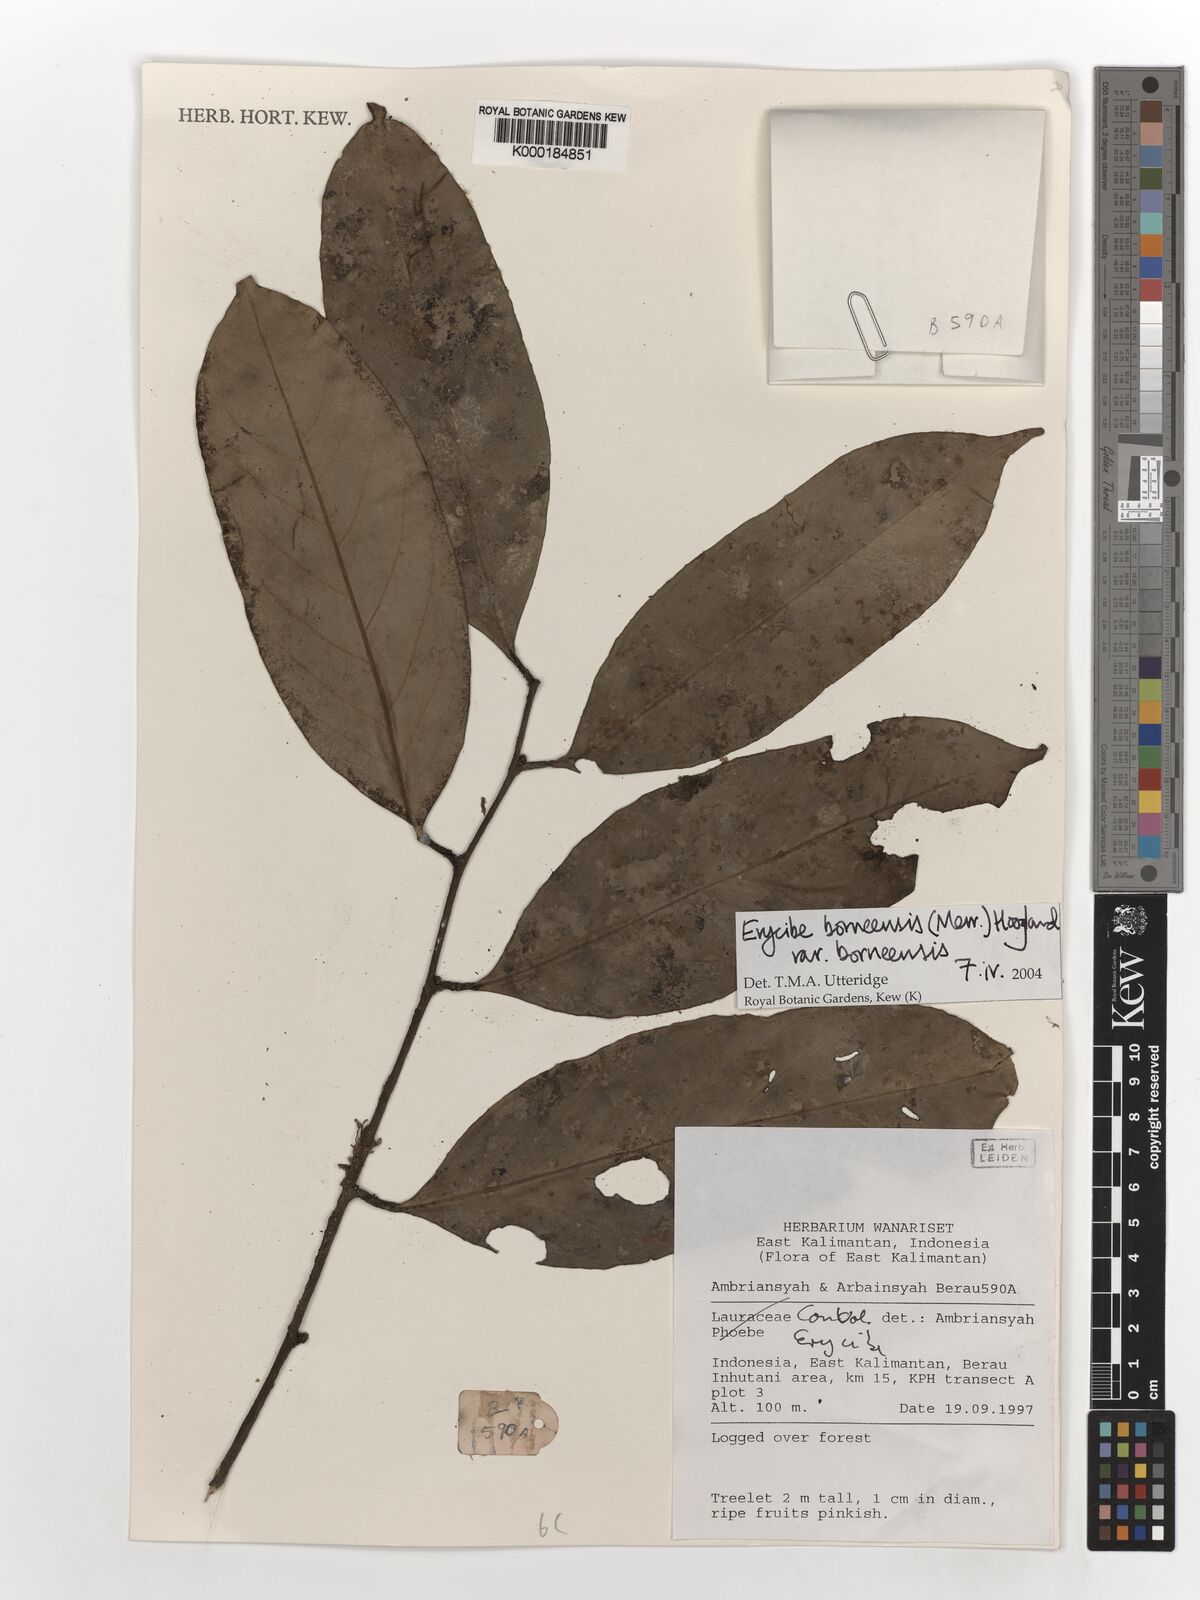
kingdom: Plantae
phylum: Tracheophyta
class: Magnoliopsida
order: Solanales
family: Convolvulaceae
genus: Erycibe
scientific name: Erycibe borneensis
